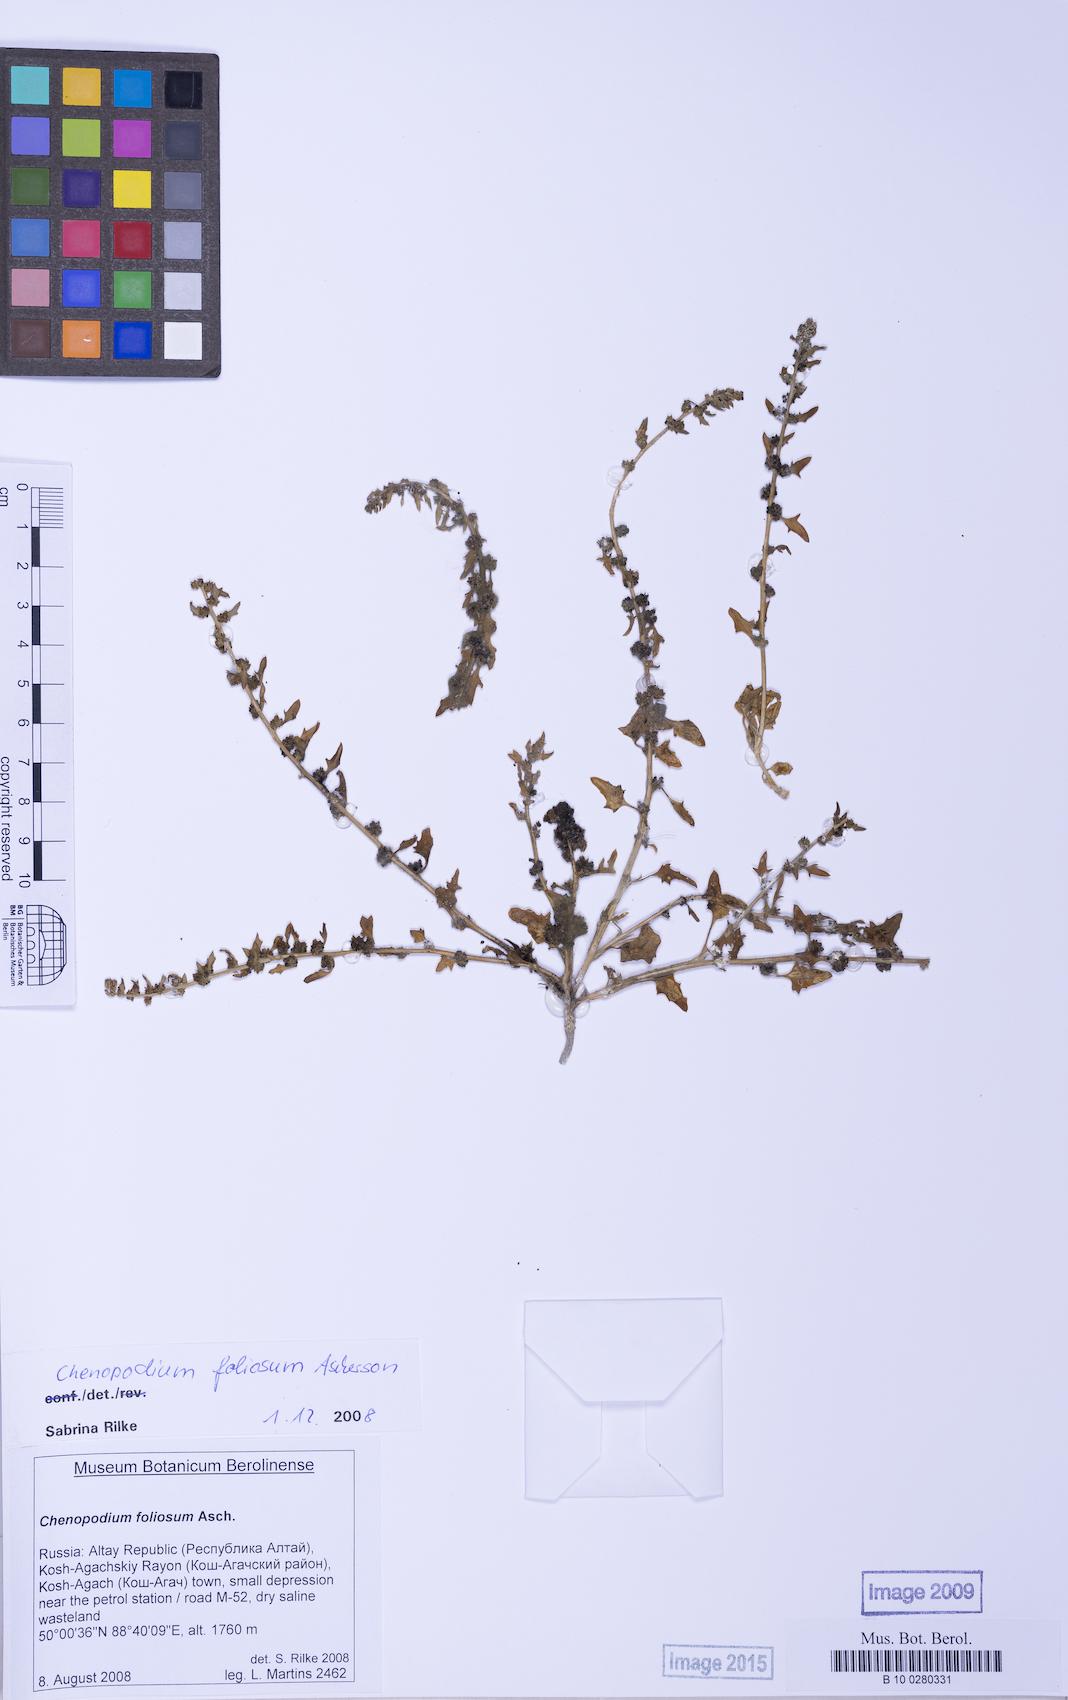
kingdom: Plantae
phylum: Tracheophyta
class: Magnoliopsida
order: Caryophyllales
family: Amaranthaceae
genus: Blitum
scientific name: Blitum virgatum
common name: Strawberry goosefoot
